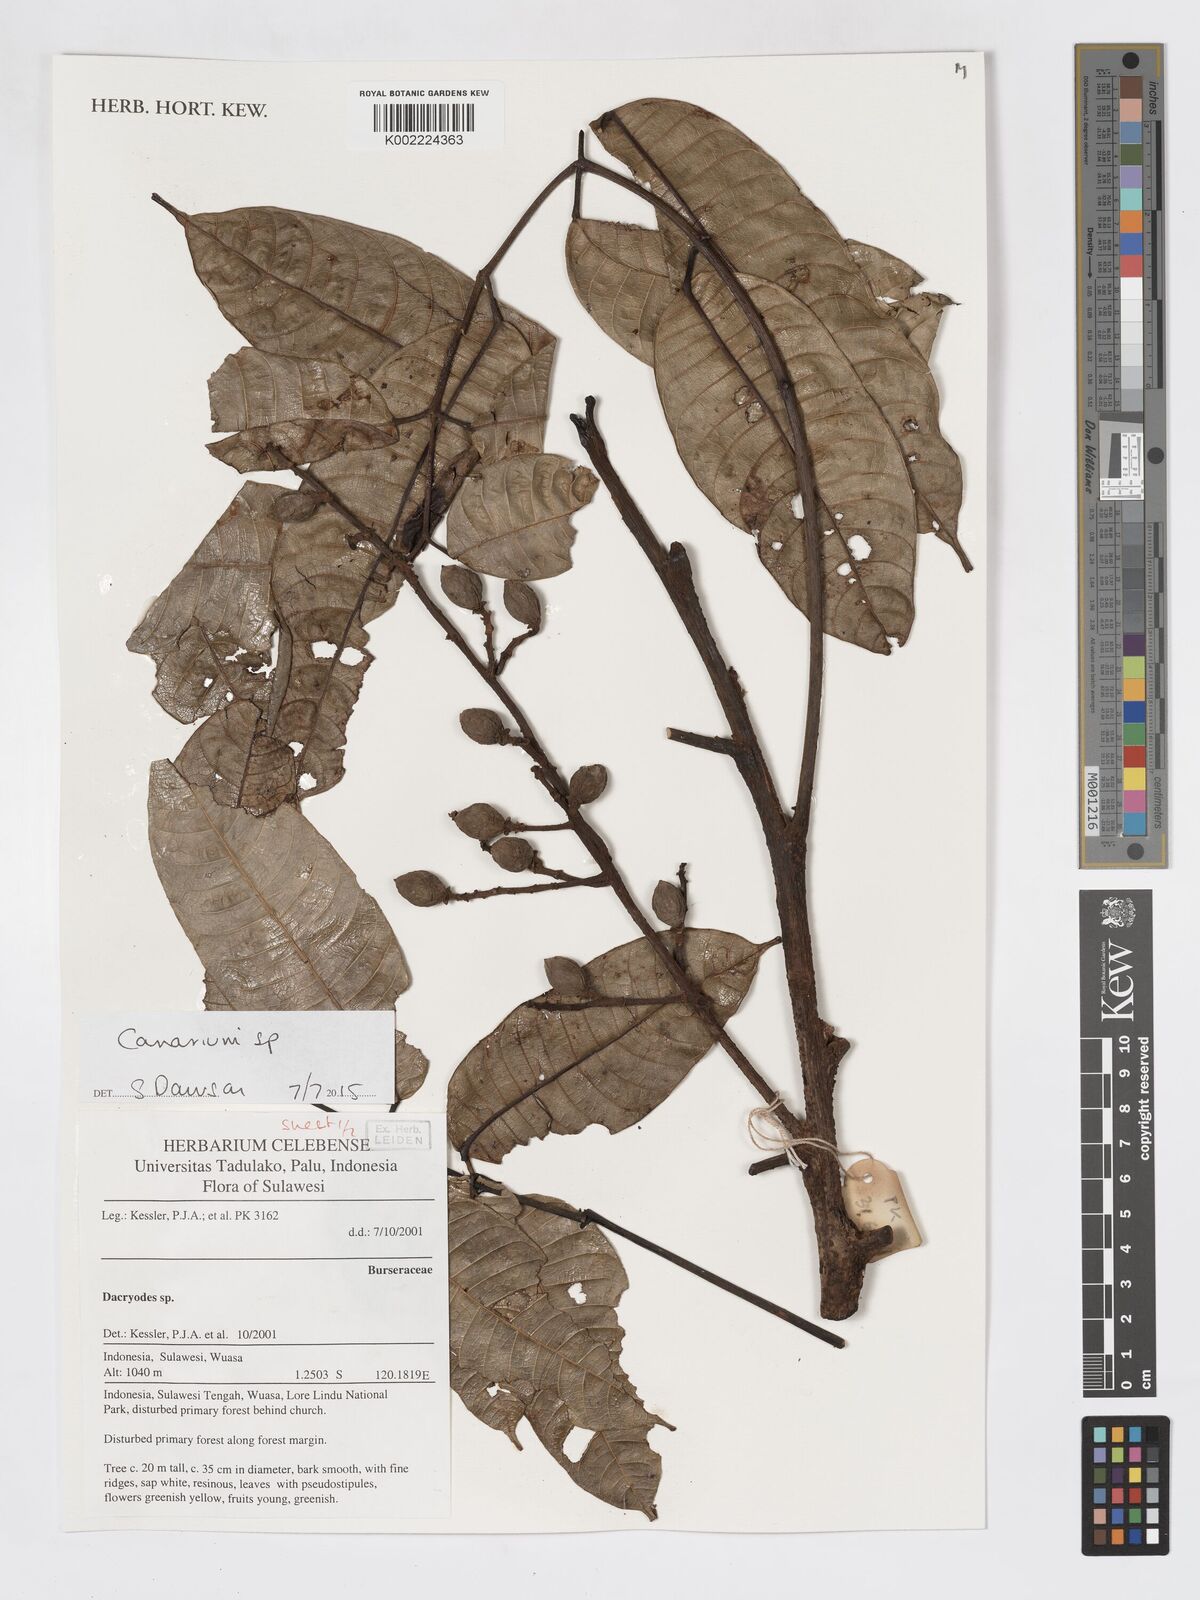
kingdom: Plantae
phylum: Tracheophyta
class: Magnoliopsida
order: Sapindales
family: Burseraceae
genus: Canarium
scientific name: Canarium
